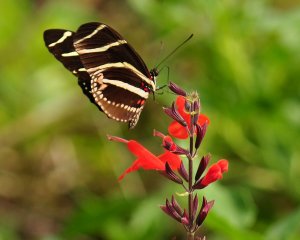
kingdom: Animalia
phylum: Arthropoda
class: Insecta
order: Lepidoptera
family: Nymphalidae
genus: Heliconius
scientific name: Heliconius charithonia
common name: Zebra Longwing
